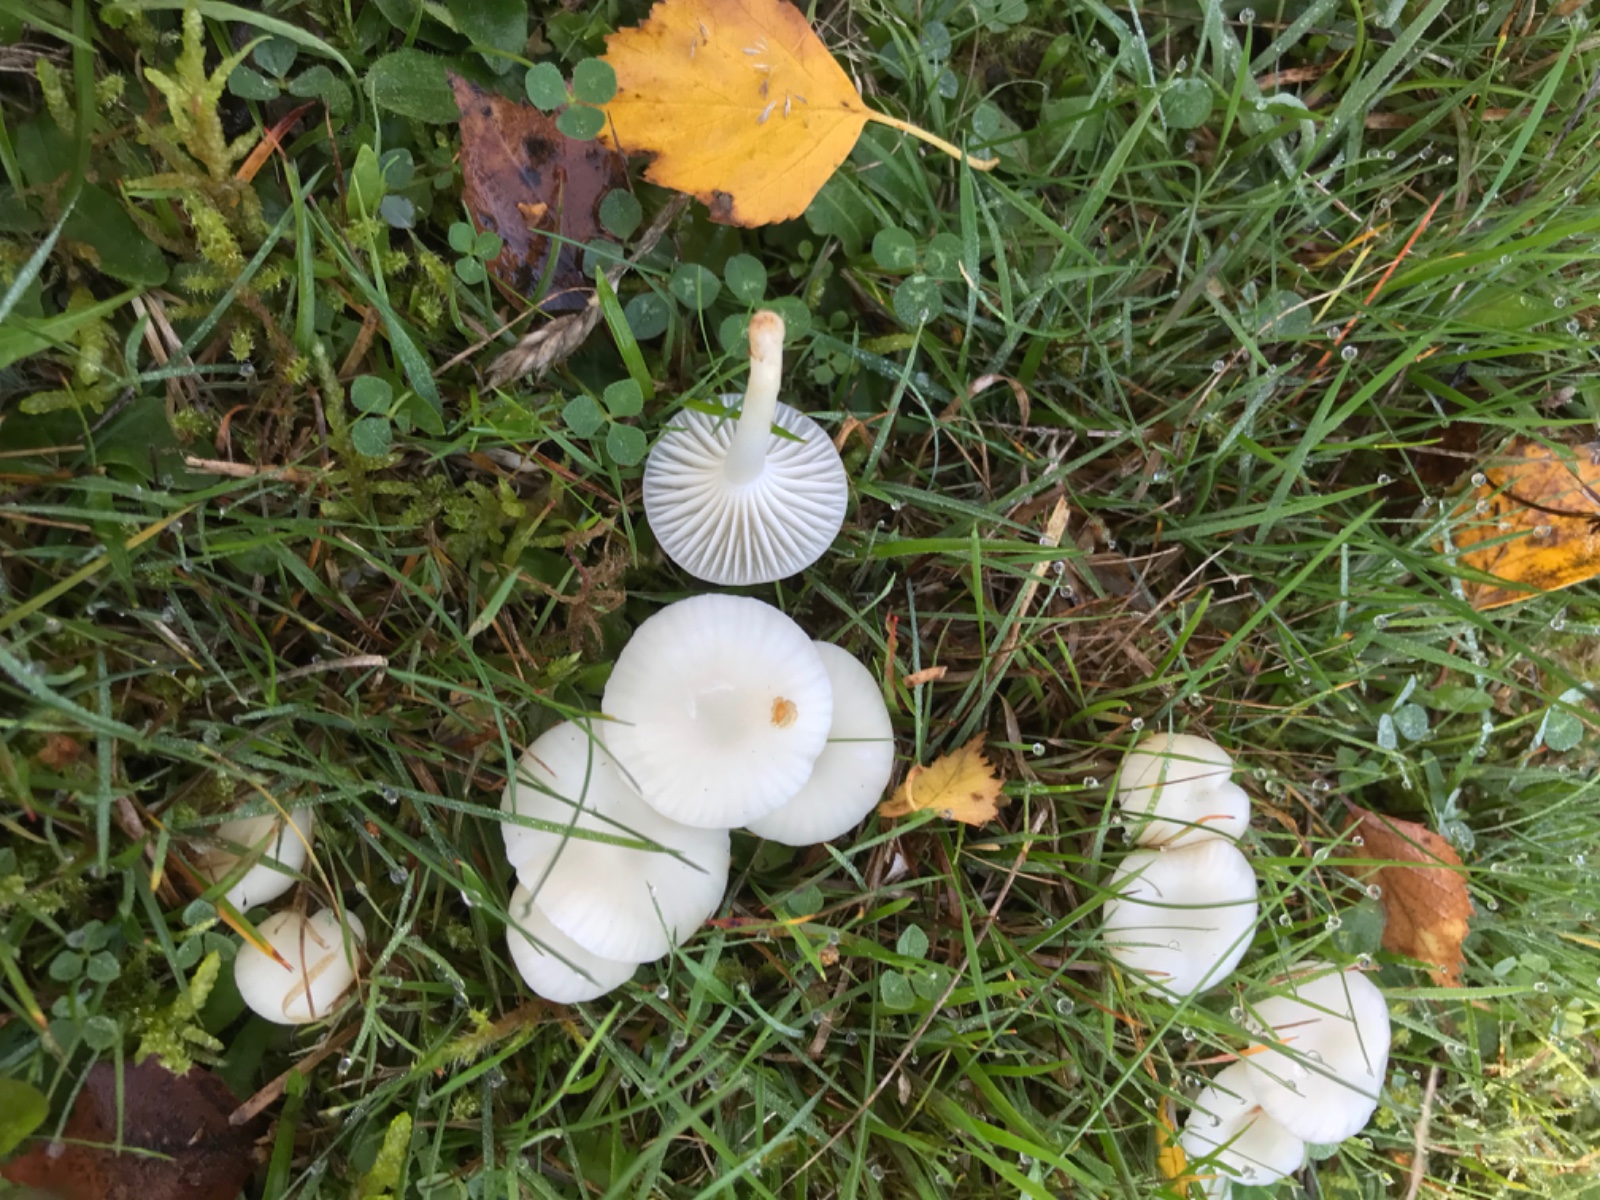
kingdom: Fungi
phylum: Basidiomycota
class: Agaricomycetes
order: Agaricales
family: Hygrophoraceae
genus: Cuphophyllus
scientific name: Cuphophyllus virgineus
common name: snehvid vokshat
